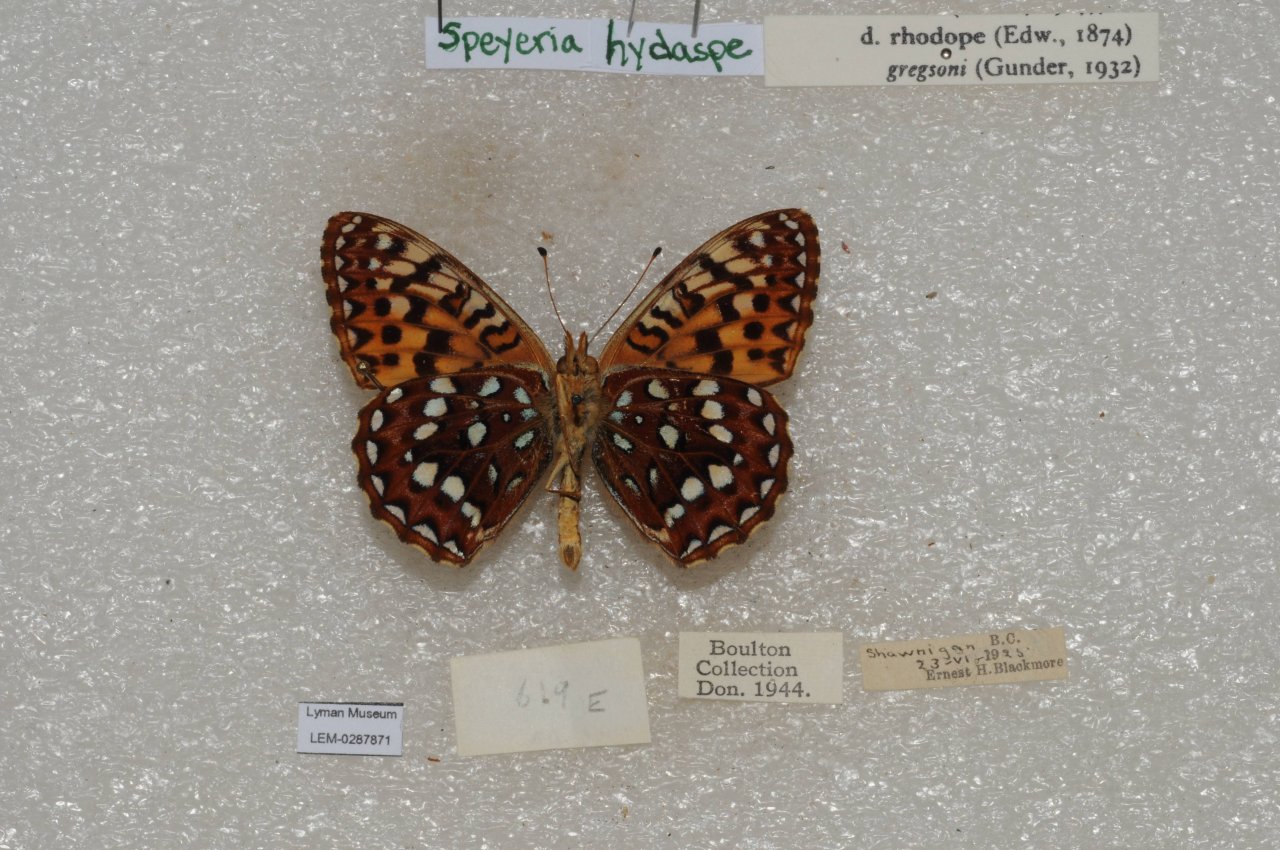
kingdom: Animalia
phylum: Arthropoda
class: Insecta
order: Lepidoptera
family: Nymphalidae
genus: Speyeria
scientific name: Speyeria hydaspe
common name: Hydaspe Fritillary
